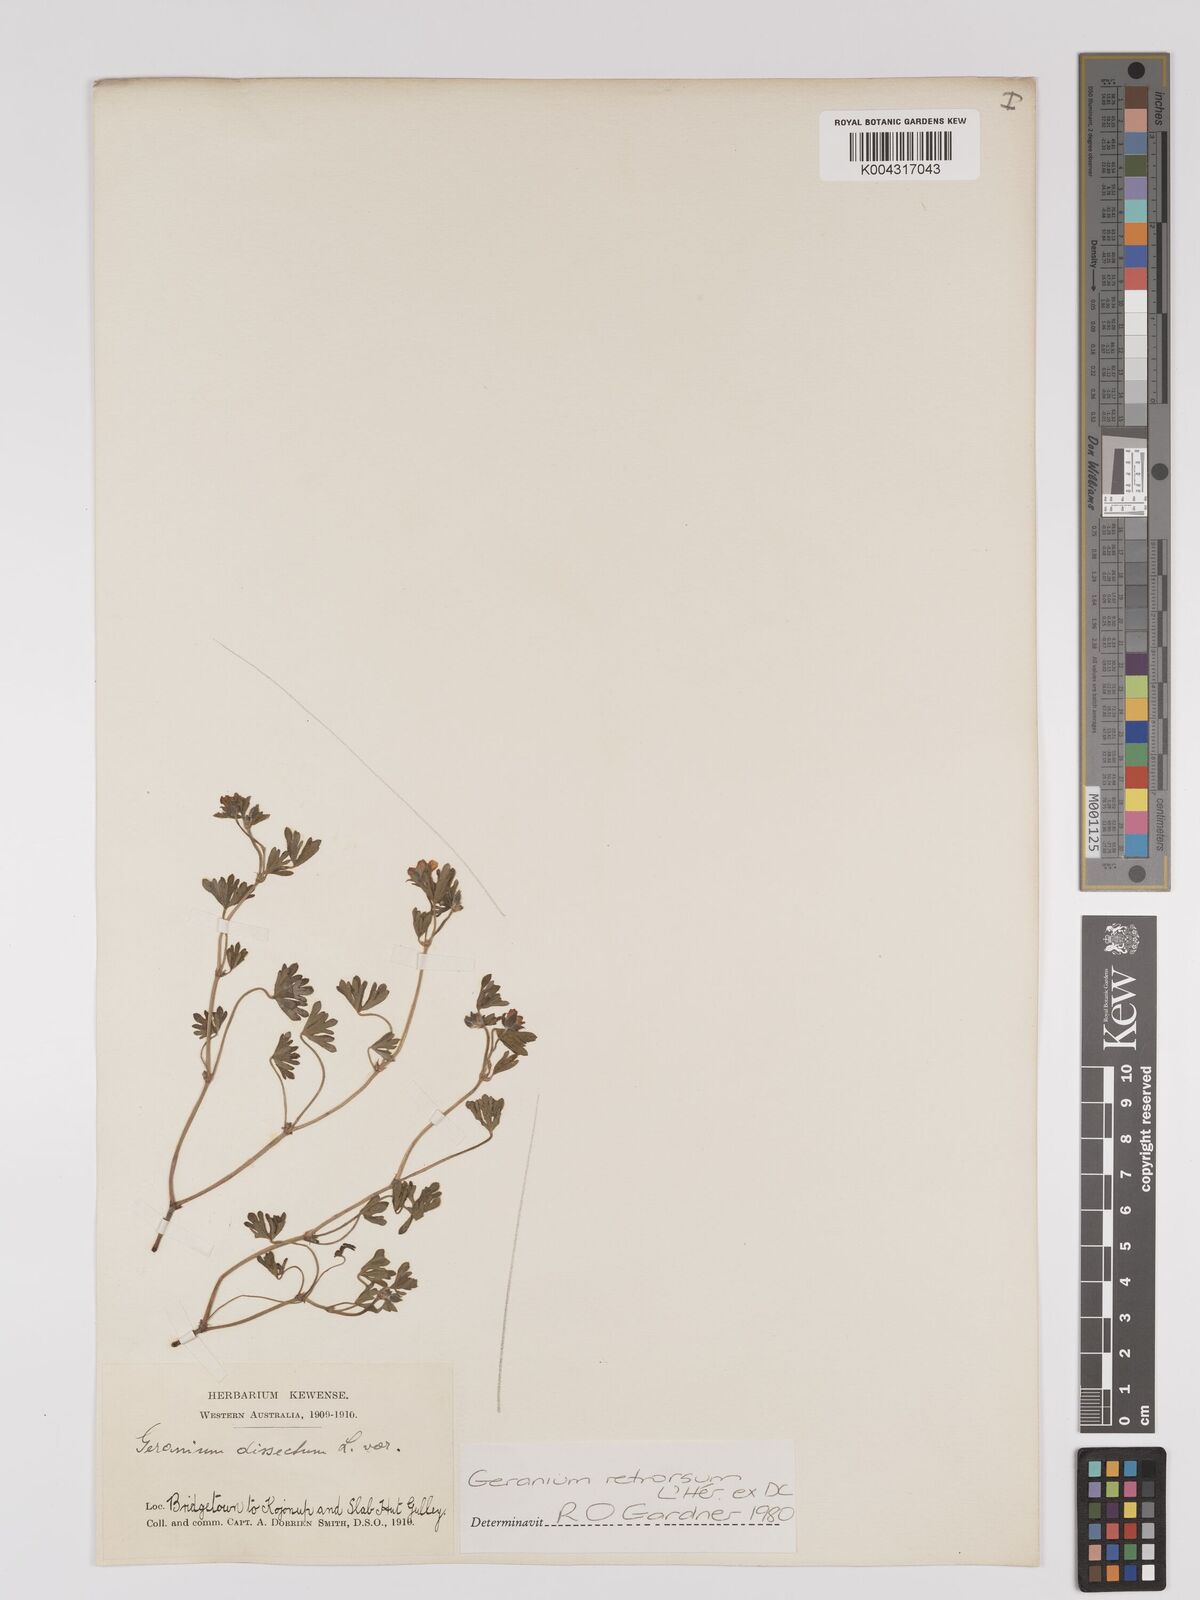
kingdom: Plantae
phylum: Tracheophyta
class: Magnoliopsida
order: Geraniales
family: Geraniaceae
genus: Geranium
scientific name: Geranium retrorsum
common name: New zealand geranium
